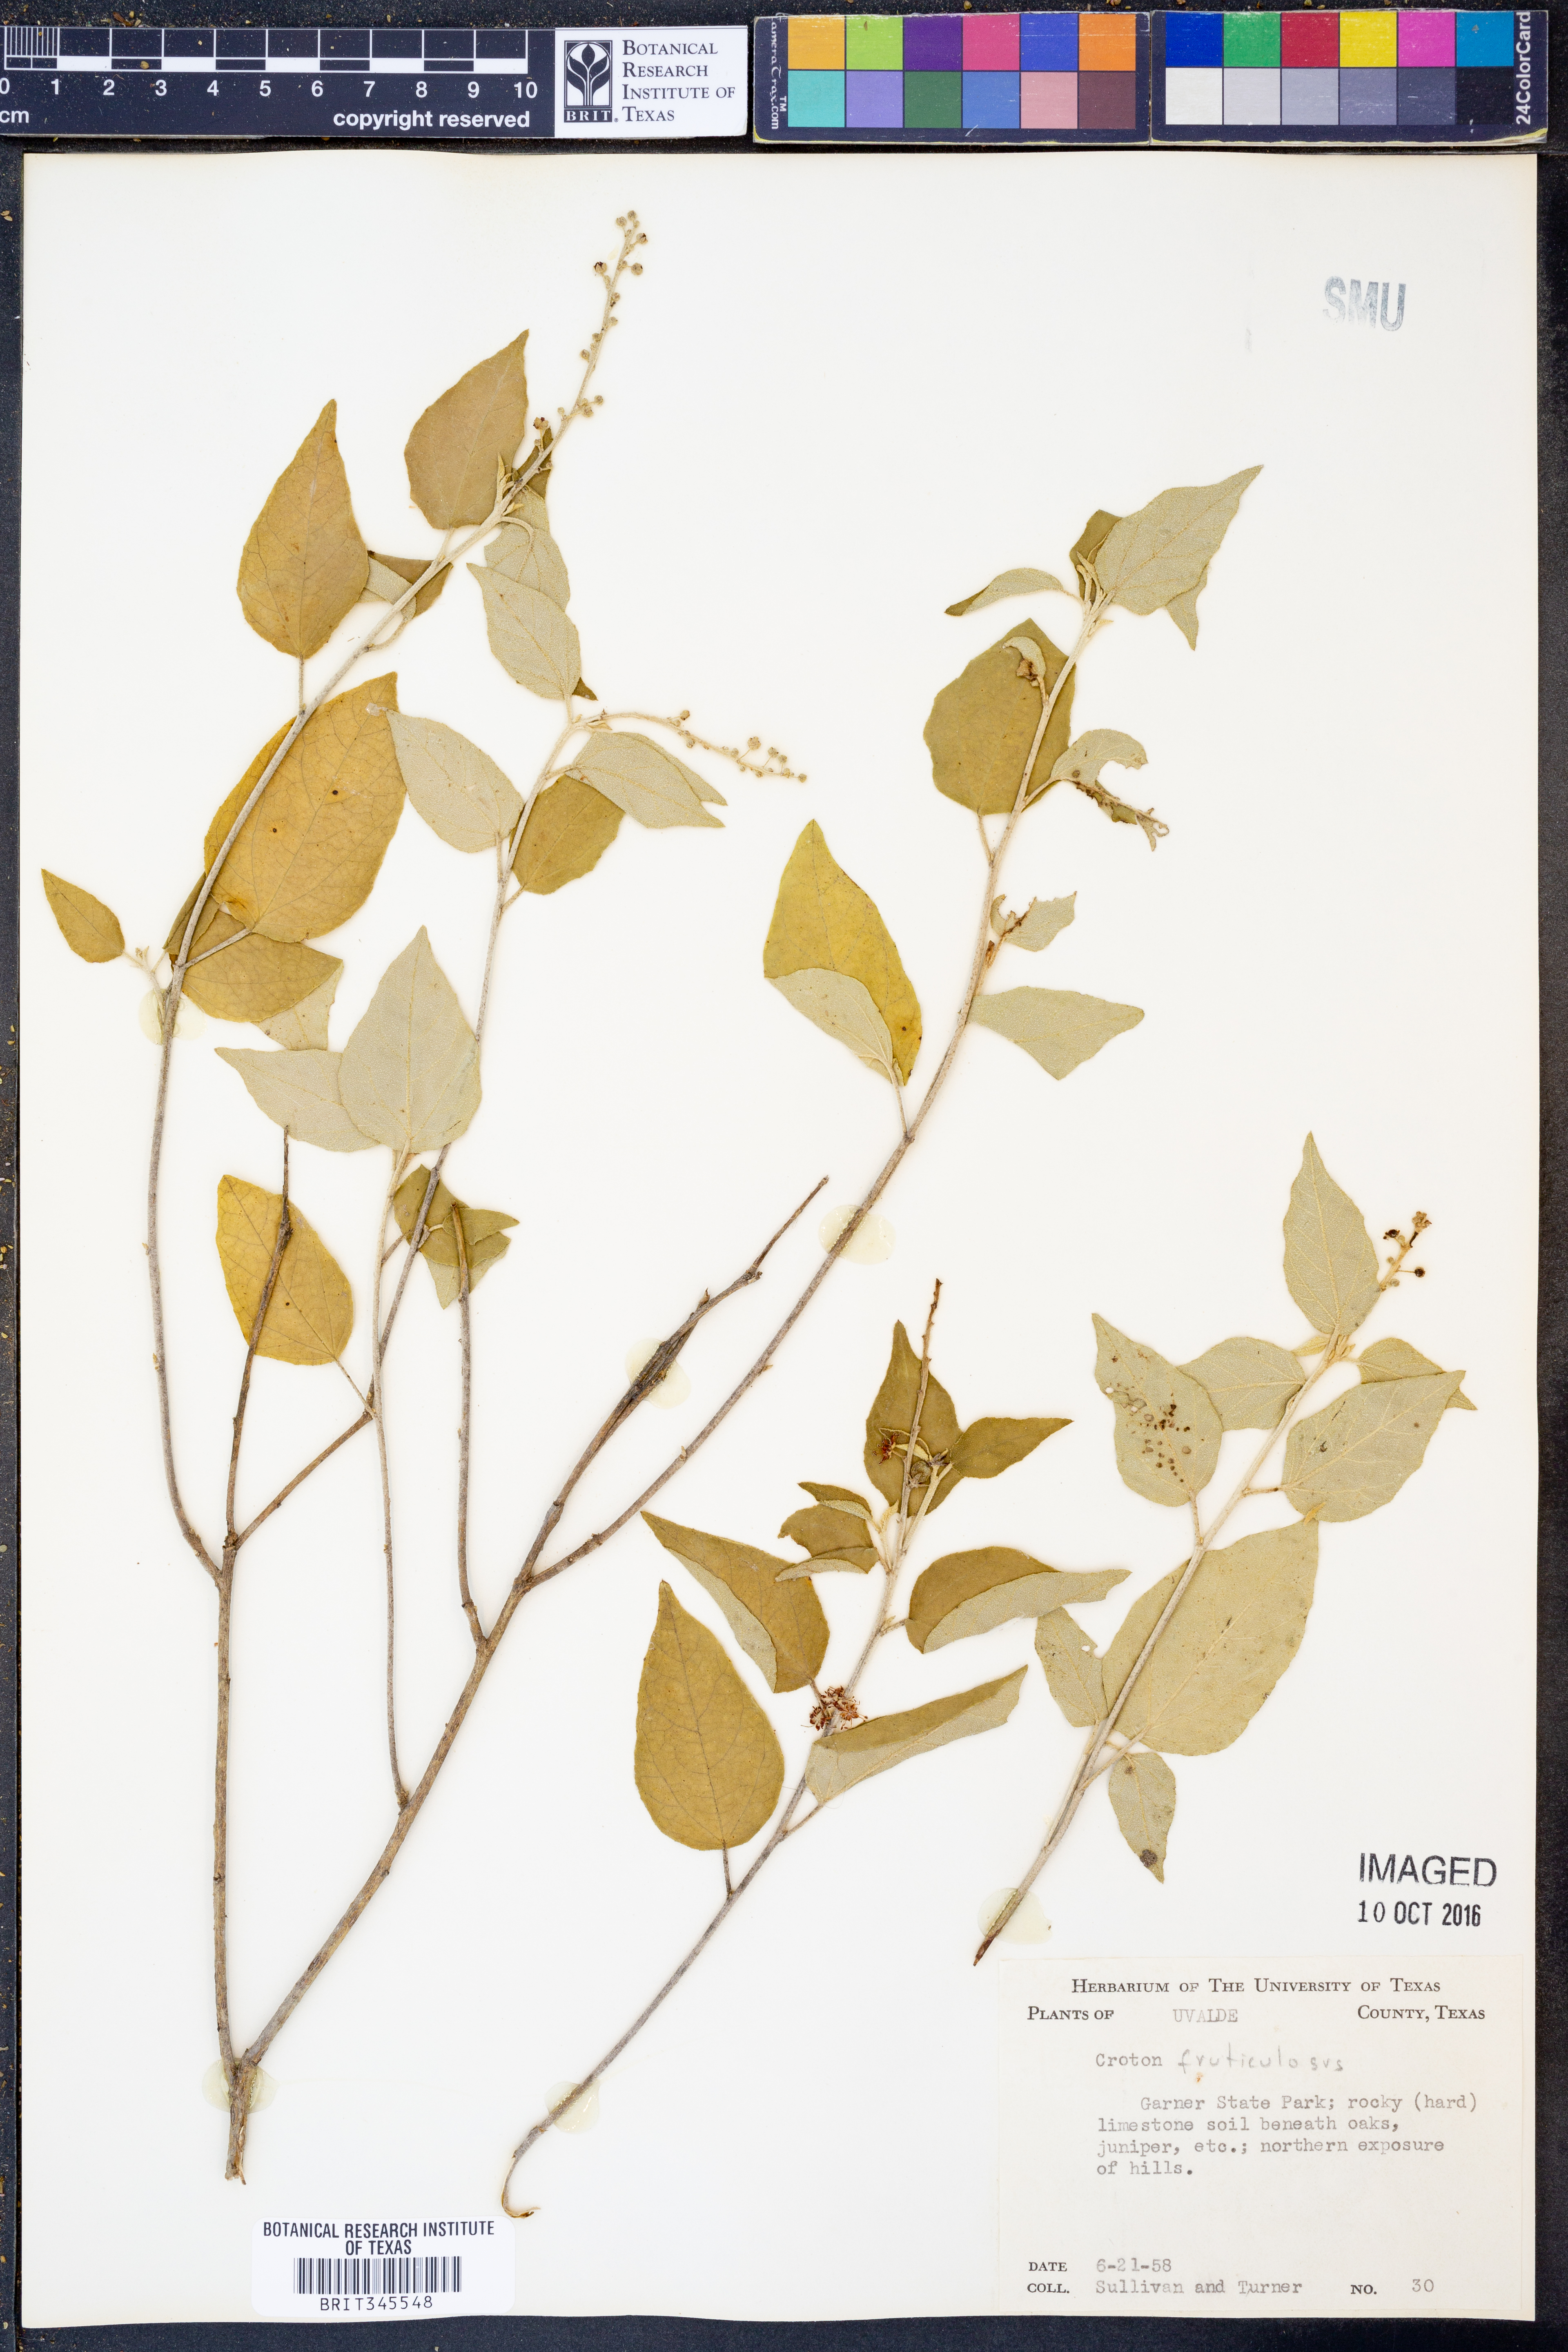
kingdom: Plantae
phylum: Tracheophyta
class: Magnoliopsida
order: Malpighiales
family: Euphorbiaceae
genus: Croton
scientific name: Croton fruticulosus
